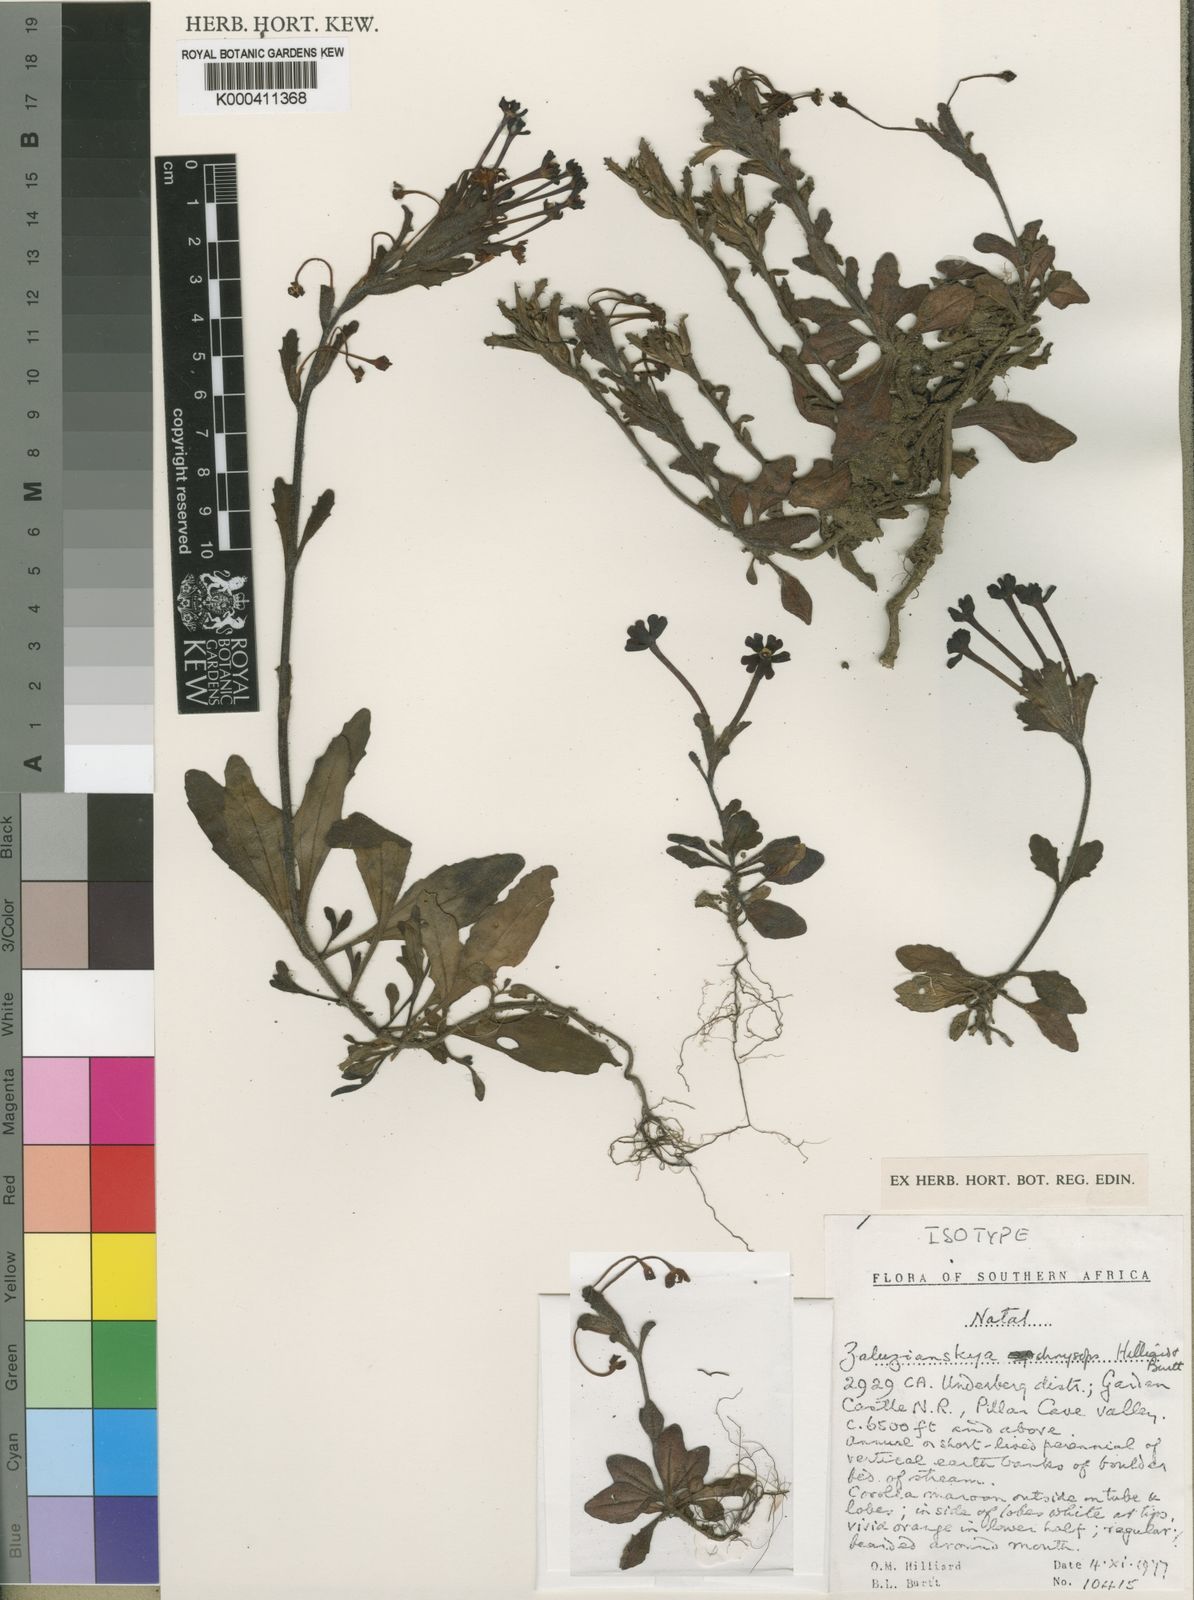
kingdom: Plantae
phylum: Tracheophyta
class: Magnoliopsida
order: Lamiales
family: Scrophulariaceae
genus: Zaluzianskya
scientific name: Zaluzianskya chrysops
